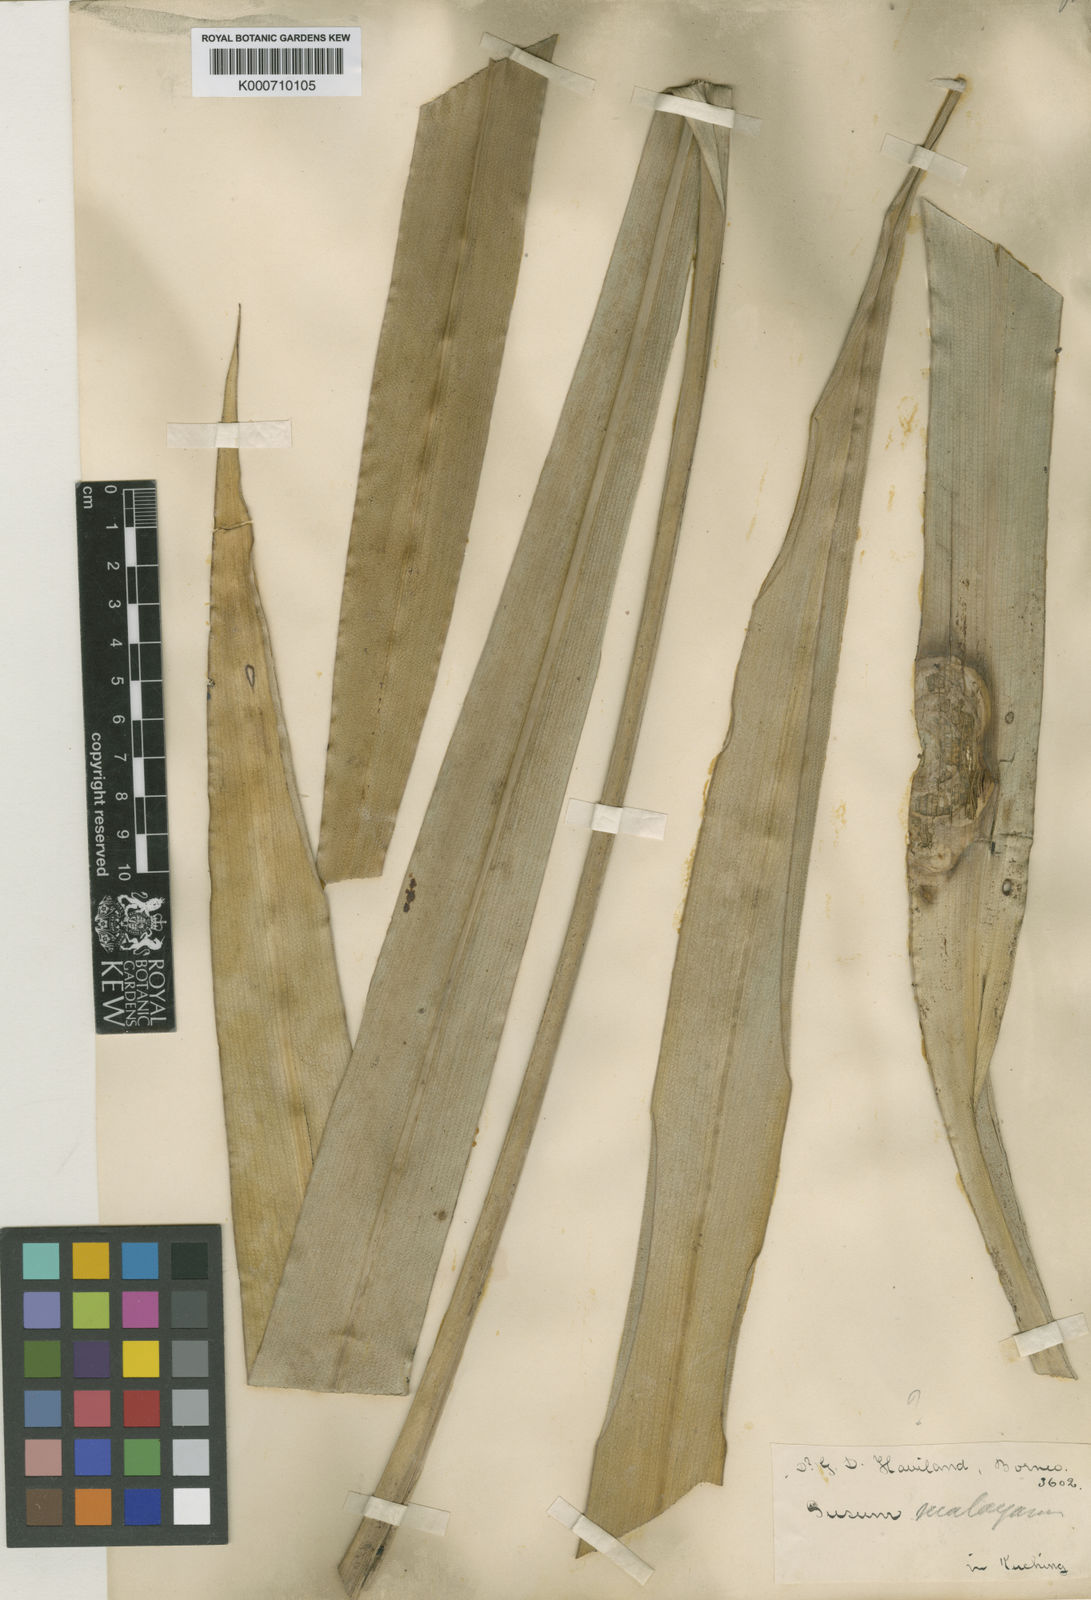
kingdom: Plantae
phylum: Tracheophyta
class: Liliopsida
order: Commelinales
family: Hanguanaceae
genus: Hanguana
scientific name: Hanguana malayana
